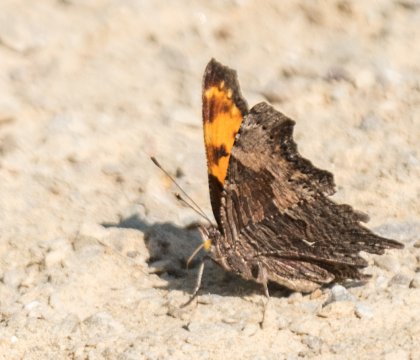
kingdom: Animalia
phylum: Arthropoda
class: Insecta
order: Lepidoptera
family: Nymphalidae
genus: Polygonia
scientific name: Polygonia progne
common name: Gray Comma
